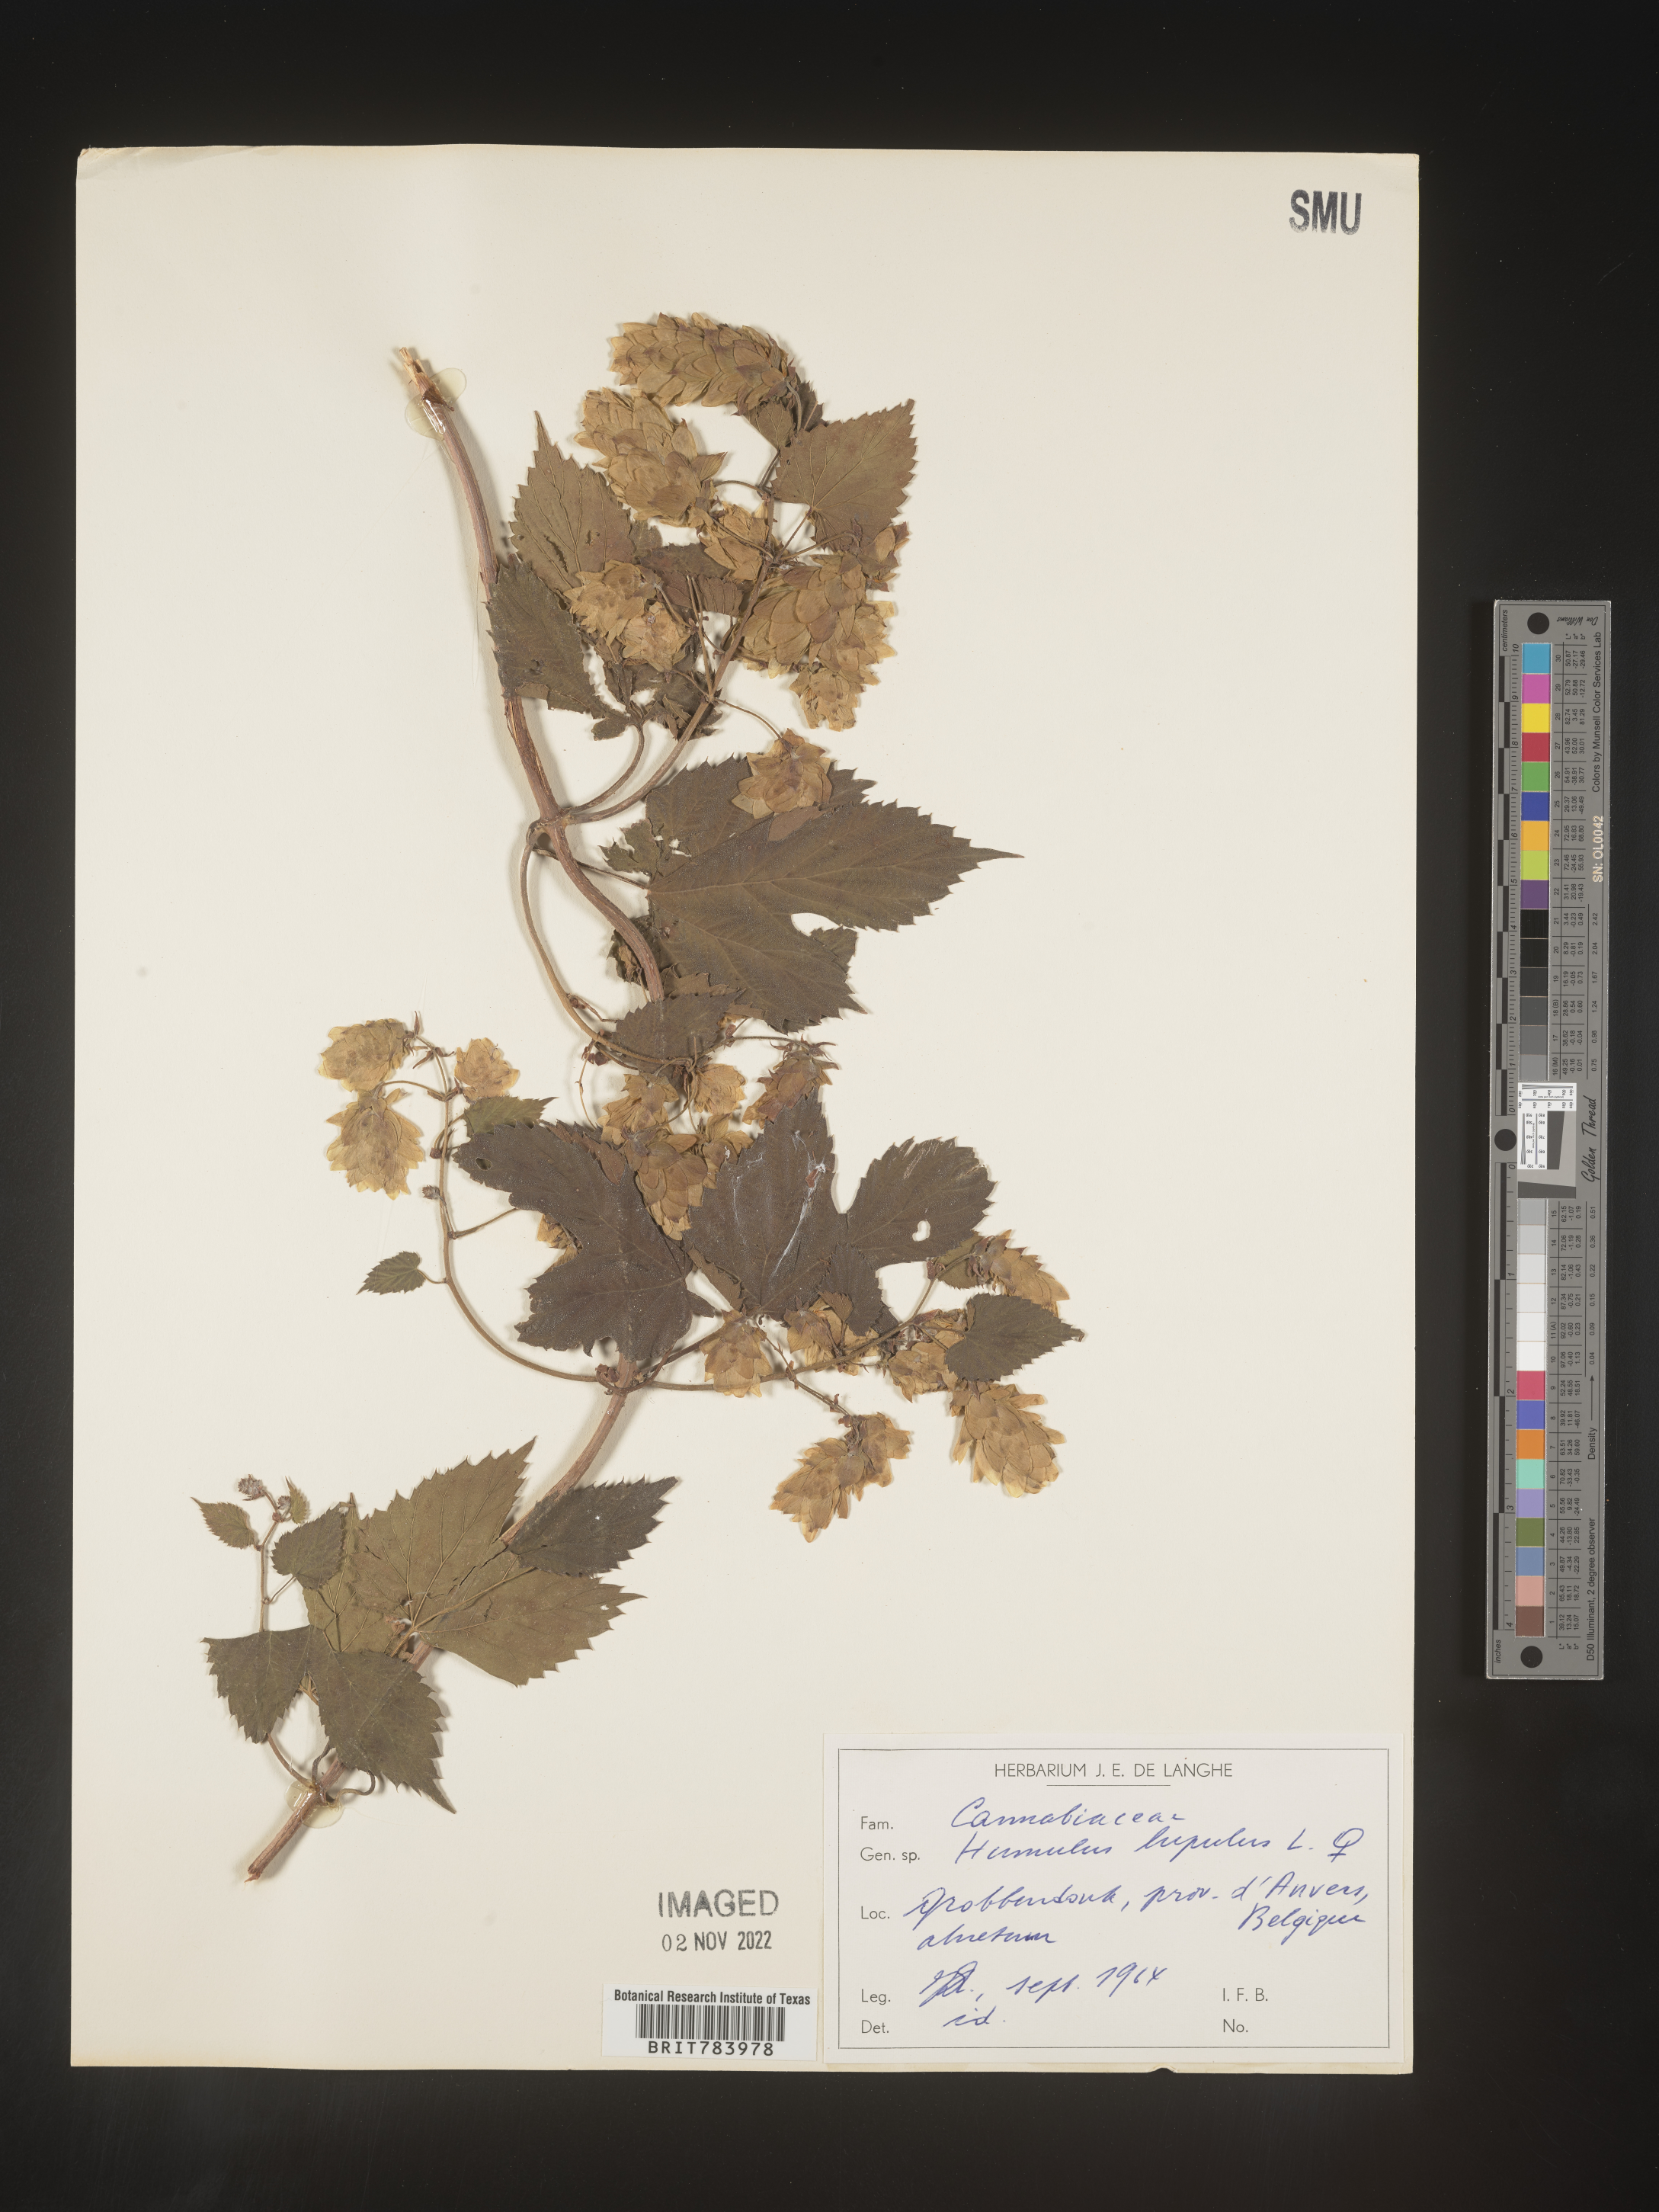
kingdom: Plantae
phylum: Tracheophyta
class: Magnoliopsida
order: Rosales
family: Cannabaceae
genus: Humulus
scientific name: Humulus
